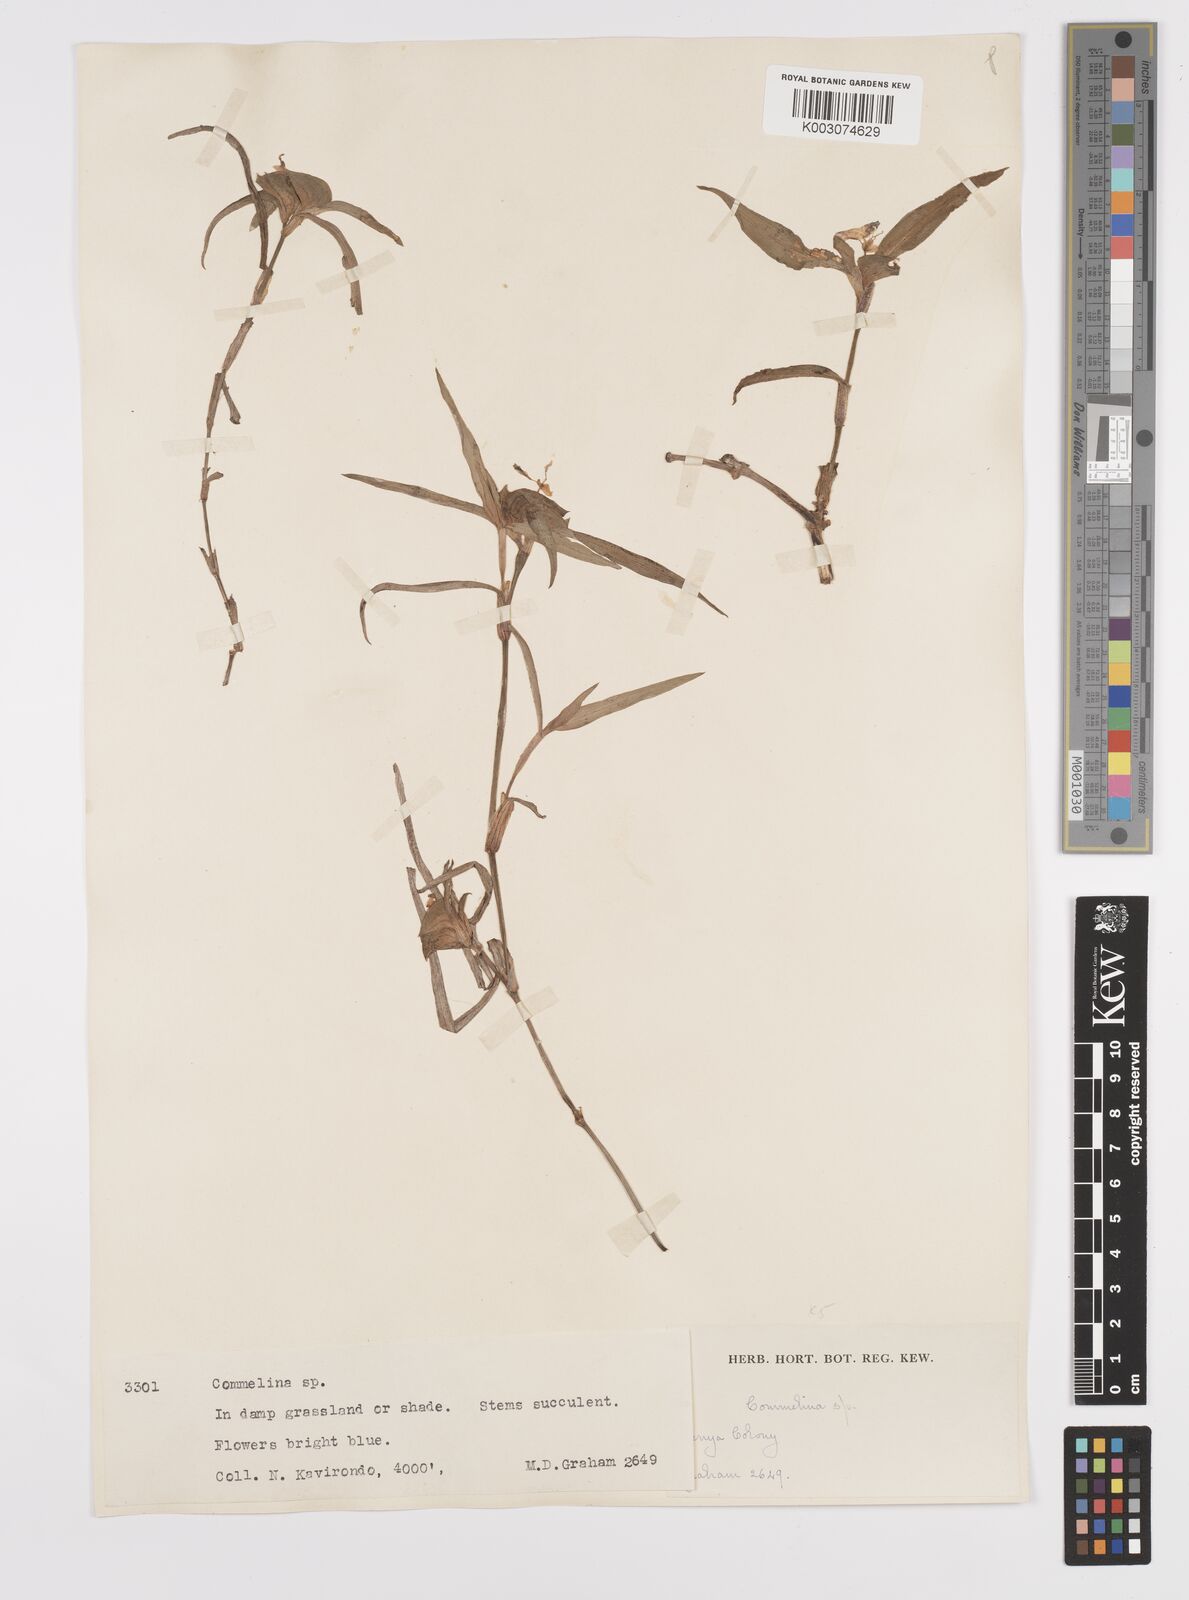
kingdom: Plantae
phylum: Tracheophyta
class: Liliopsida
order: Commelinales
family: Commelinaceae
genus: Commelina
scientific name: Commelina erecta
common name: Blousel blommetjie
